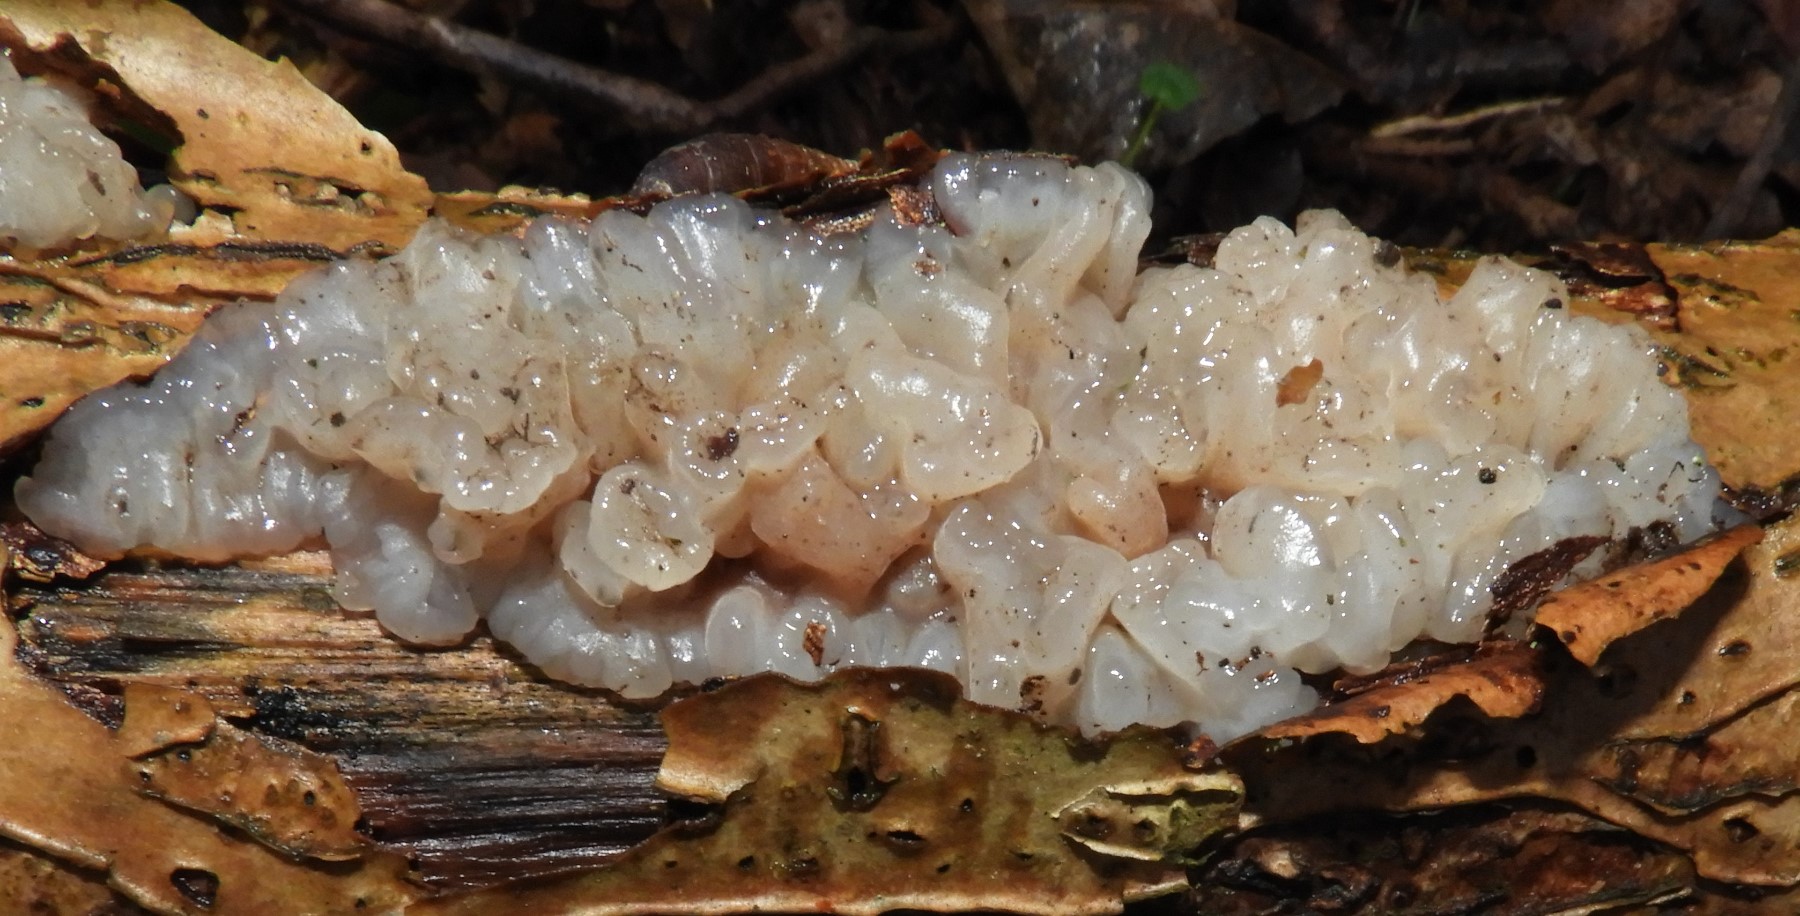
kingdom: Fungi
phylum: Basidiomycota
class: Agaricomycetes
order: Auriculariales
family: Auriculariaceae
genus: Exidia
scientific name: Exidia thuretiana
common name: hvidlig bævretop
